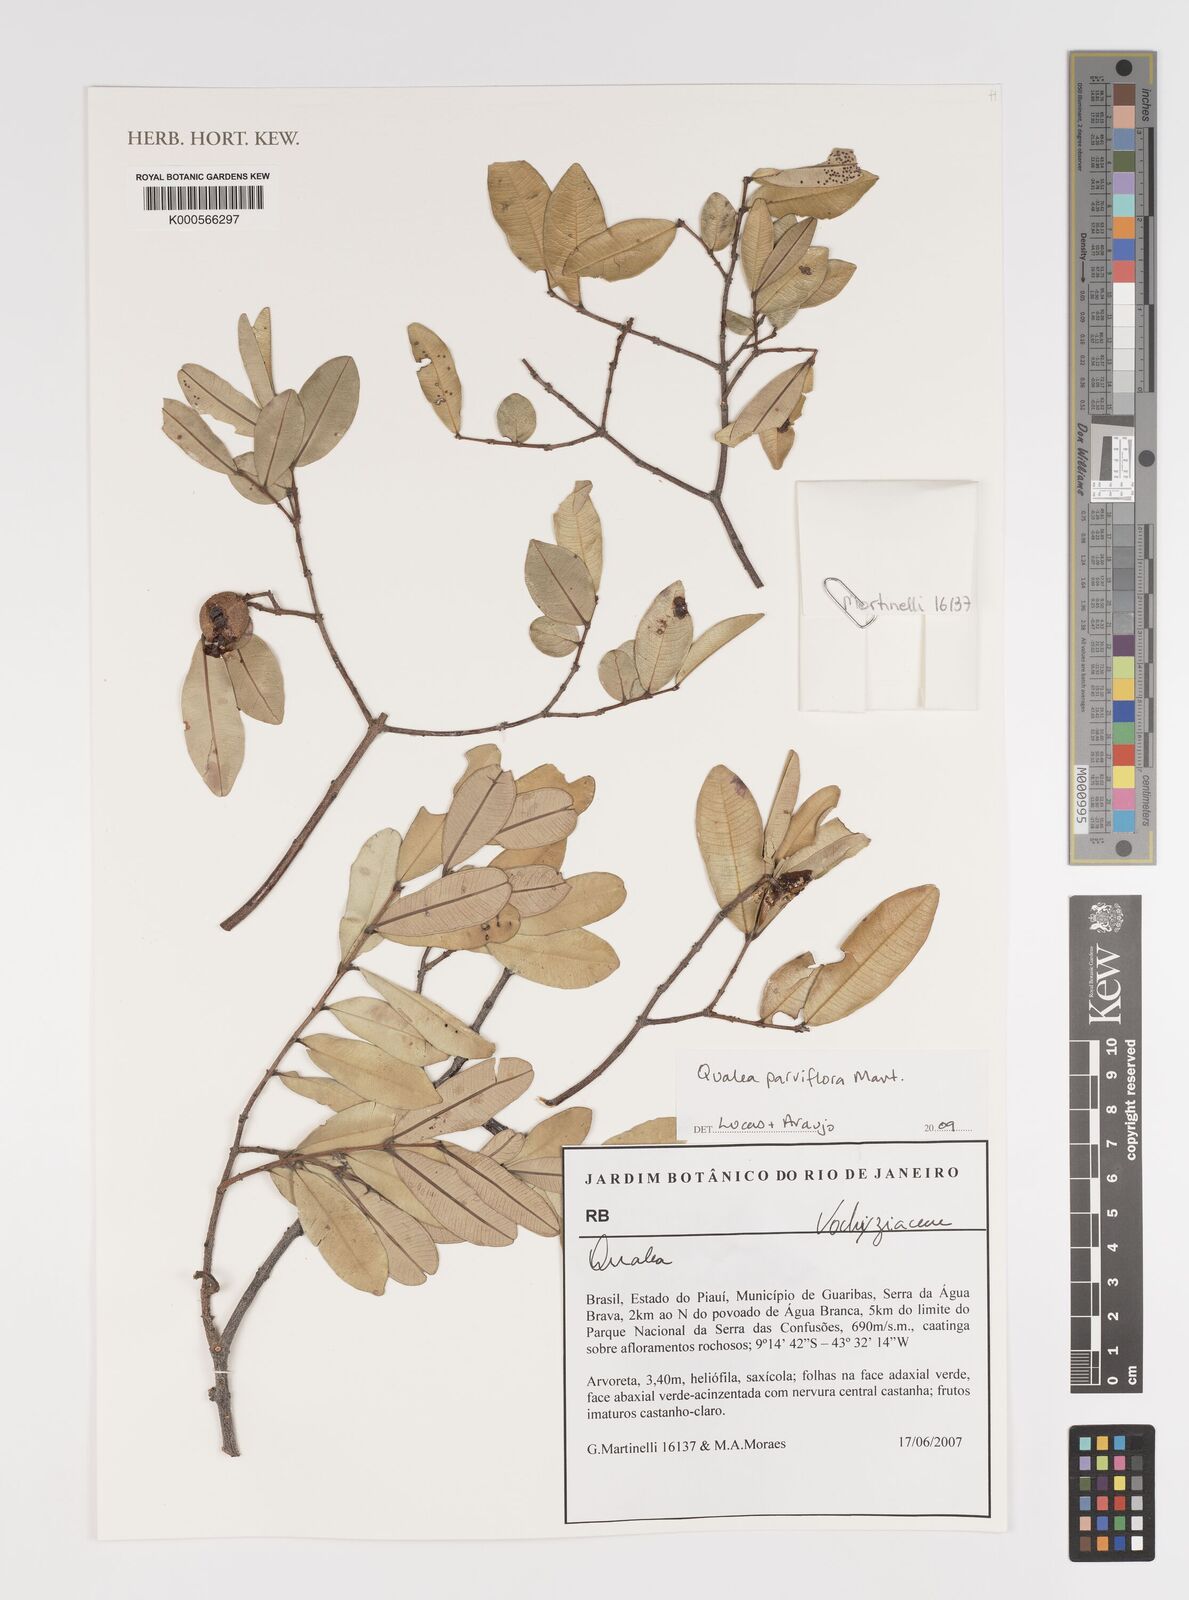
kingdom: Plantae
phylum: Tracheophyta
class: Magnoliopsida
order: Myrtales
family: Vochysiaceae
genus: Qualea
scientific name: Qualea parviflora
